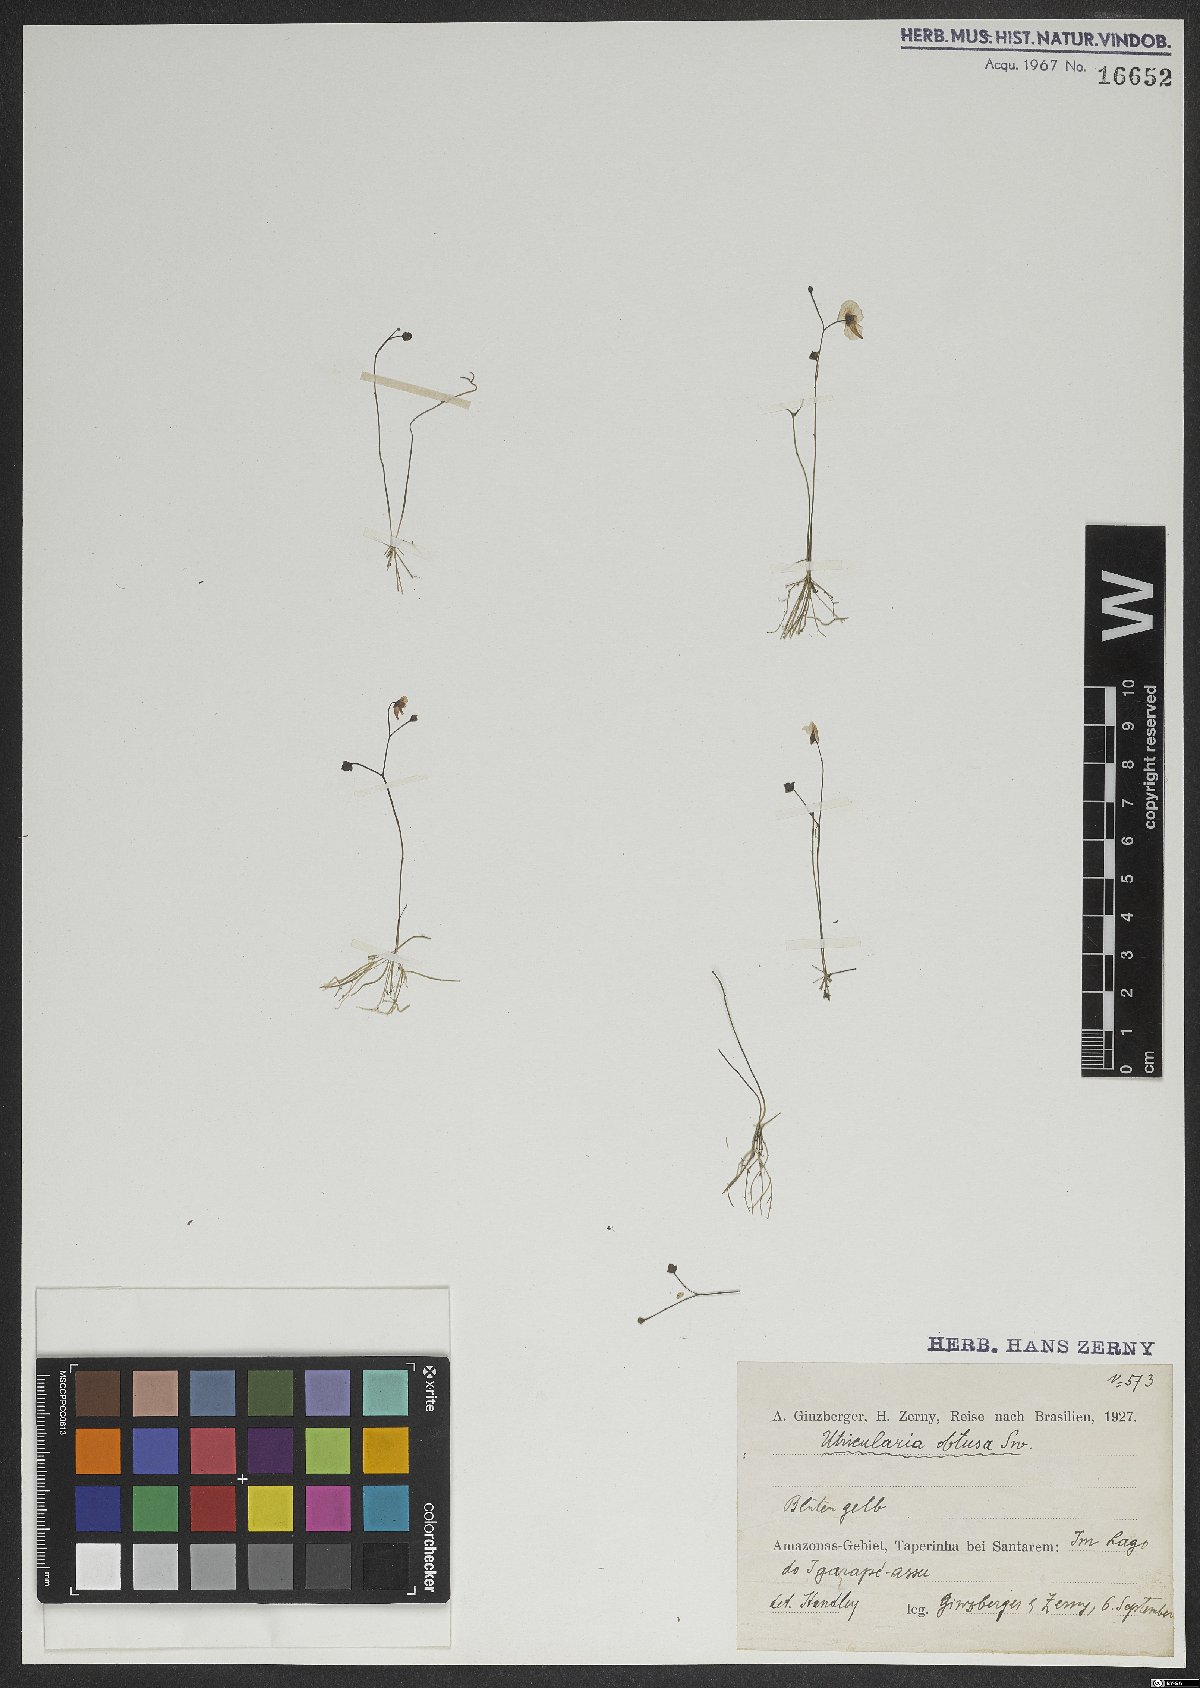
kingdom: Plantae
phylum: Tracheophyta
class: Magnoliopsida
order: Lamiales
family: Lentibulariaceae
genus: Utricularia
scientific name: Utricularia gibba
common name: Humped bladderwort
